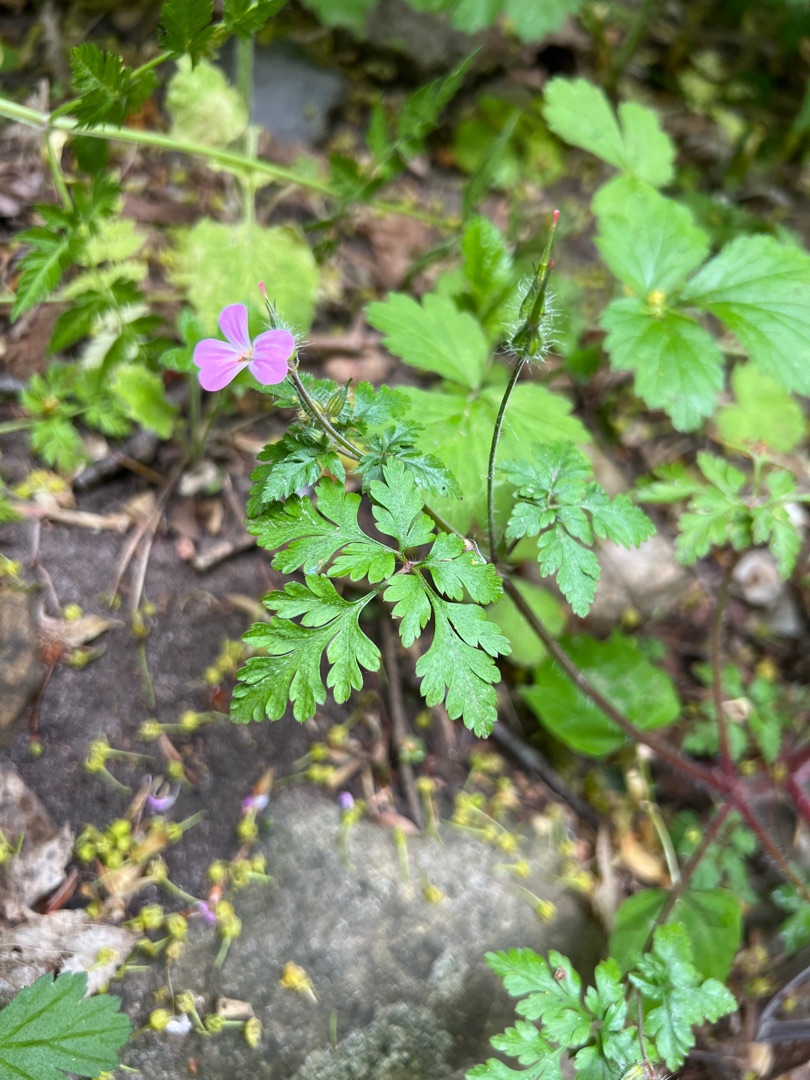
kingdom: Plantae
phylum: Tracheophyta
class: Magnoliopsida
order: Geraniales
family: Geraniaceae
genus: Geranium
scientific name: Geranium robertianum
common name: Stinkende storkenæb
